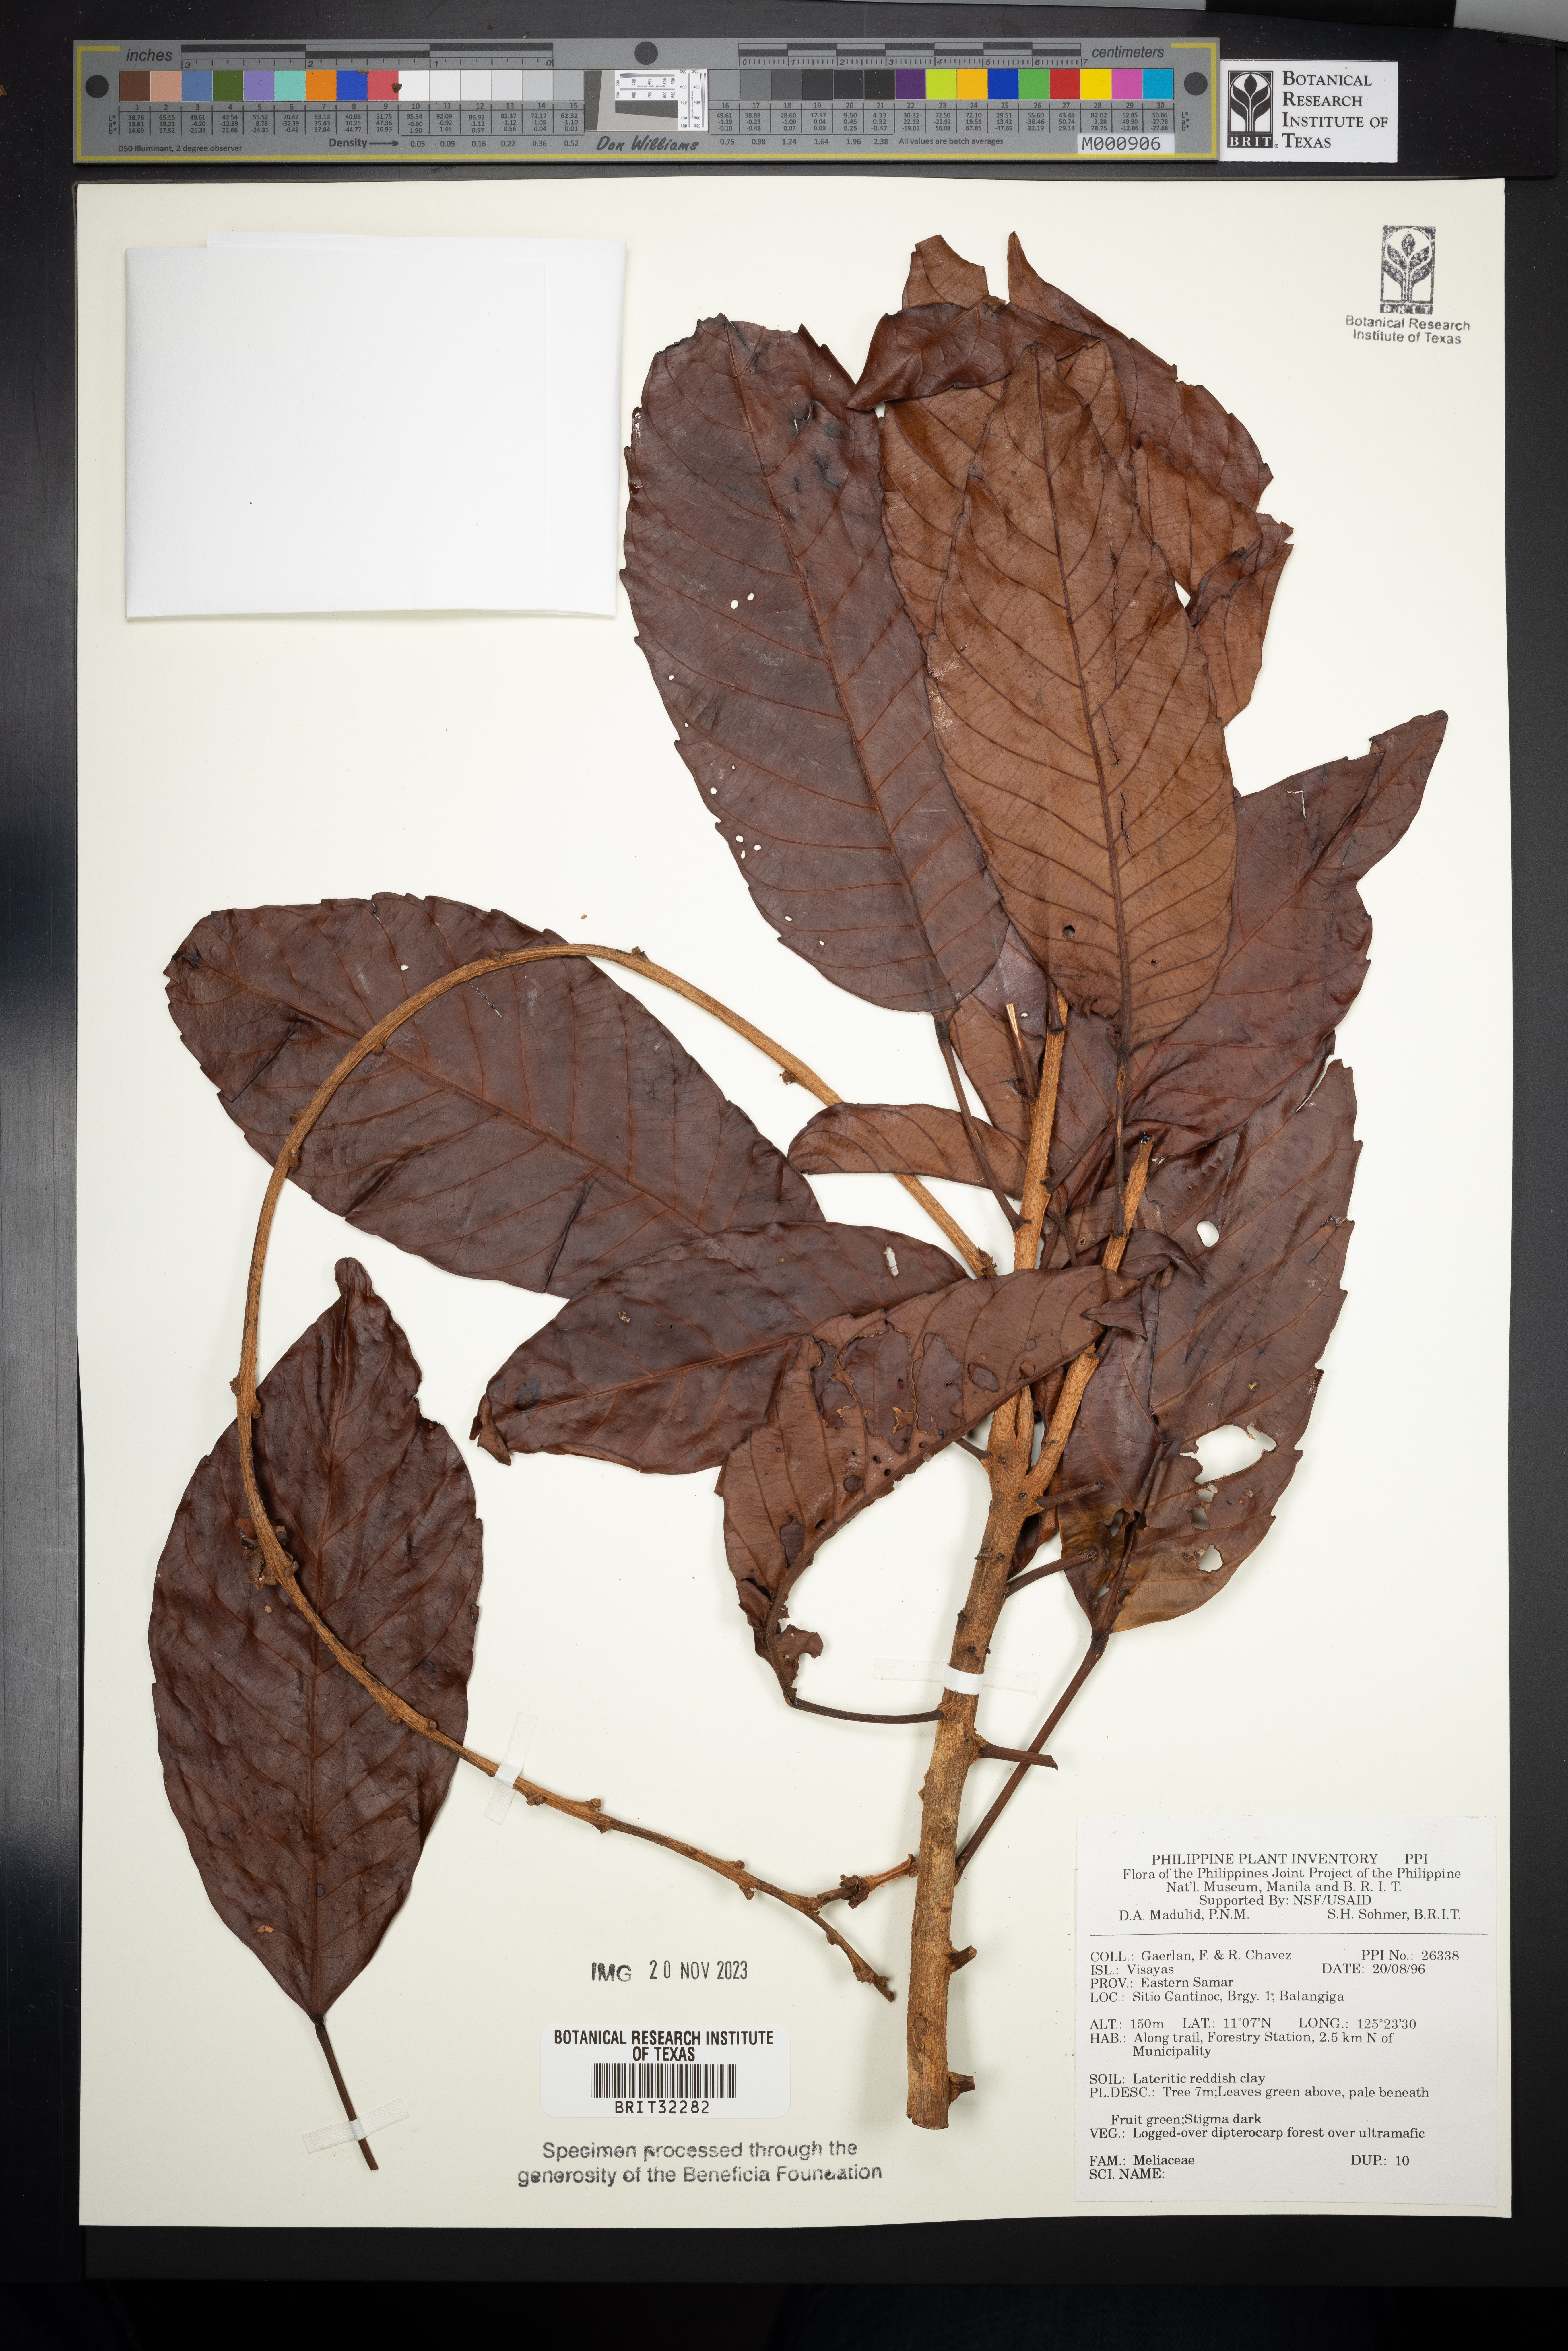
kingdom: Plantae
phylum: Tracheophyta
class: Magnoliopsida
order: Sapindales
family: Meliaceae
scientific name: Meliaceae
